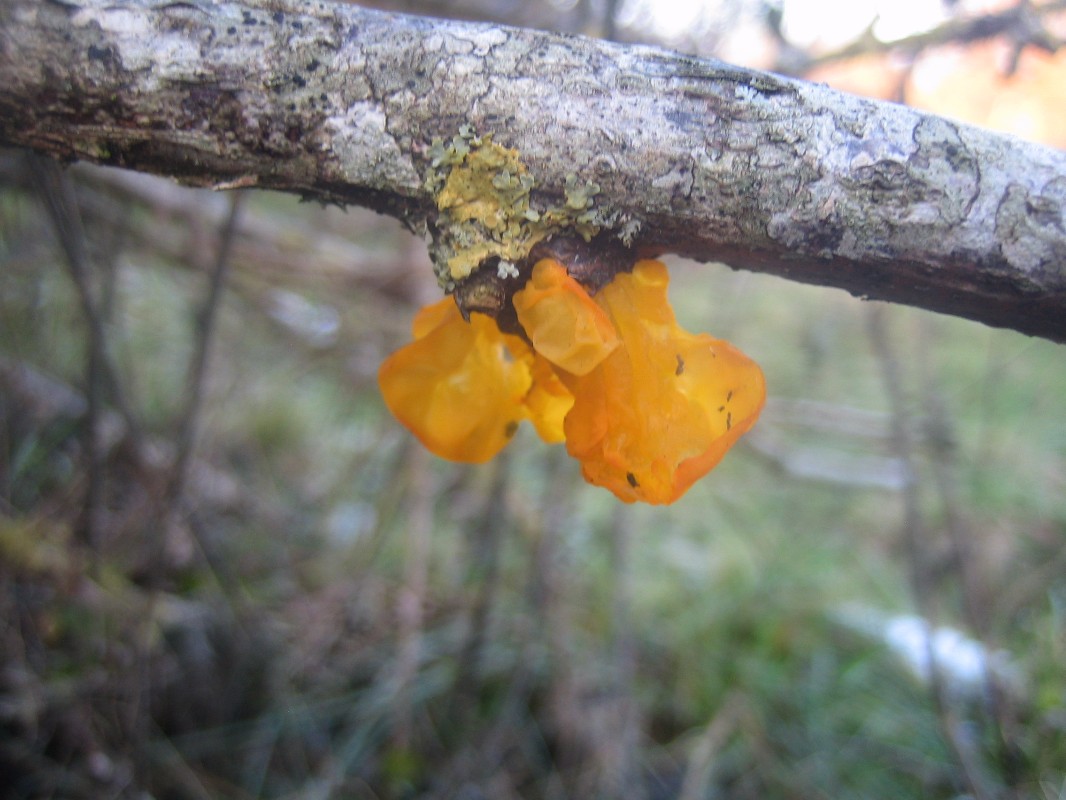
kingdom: Fungi
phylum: Basidiomycota
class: Tremellomycetes
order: Tremellales
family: Tremellaceae
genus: Tremella
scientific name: Tremella mesenterica
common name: gul bævresvamp
